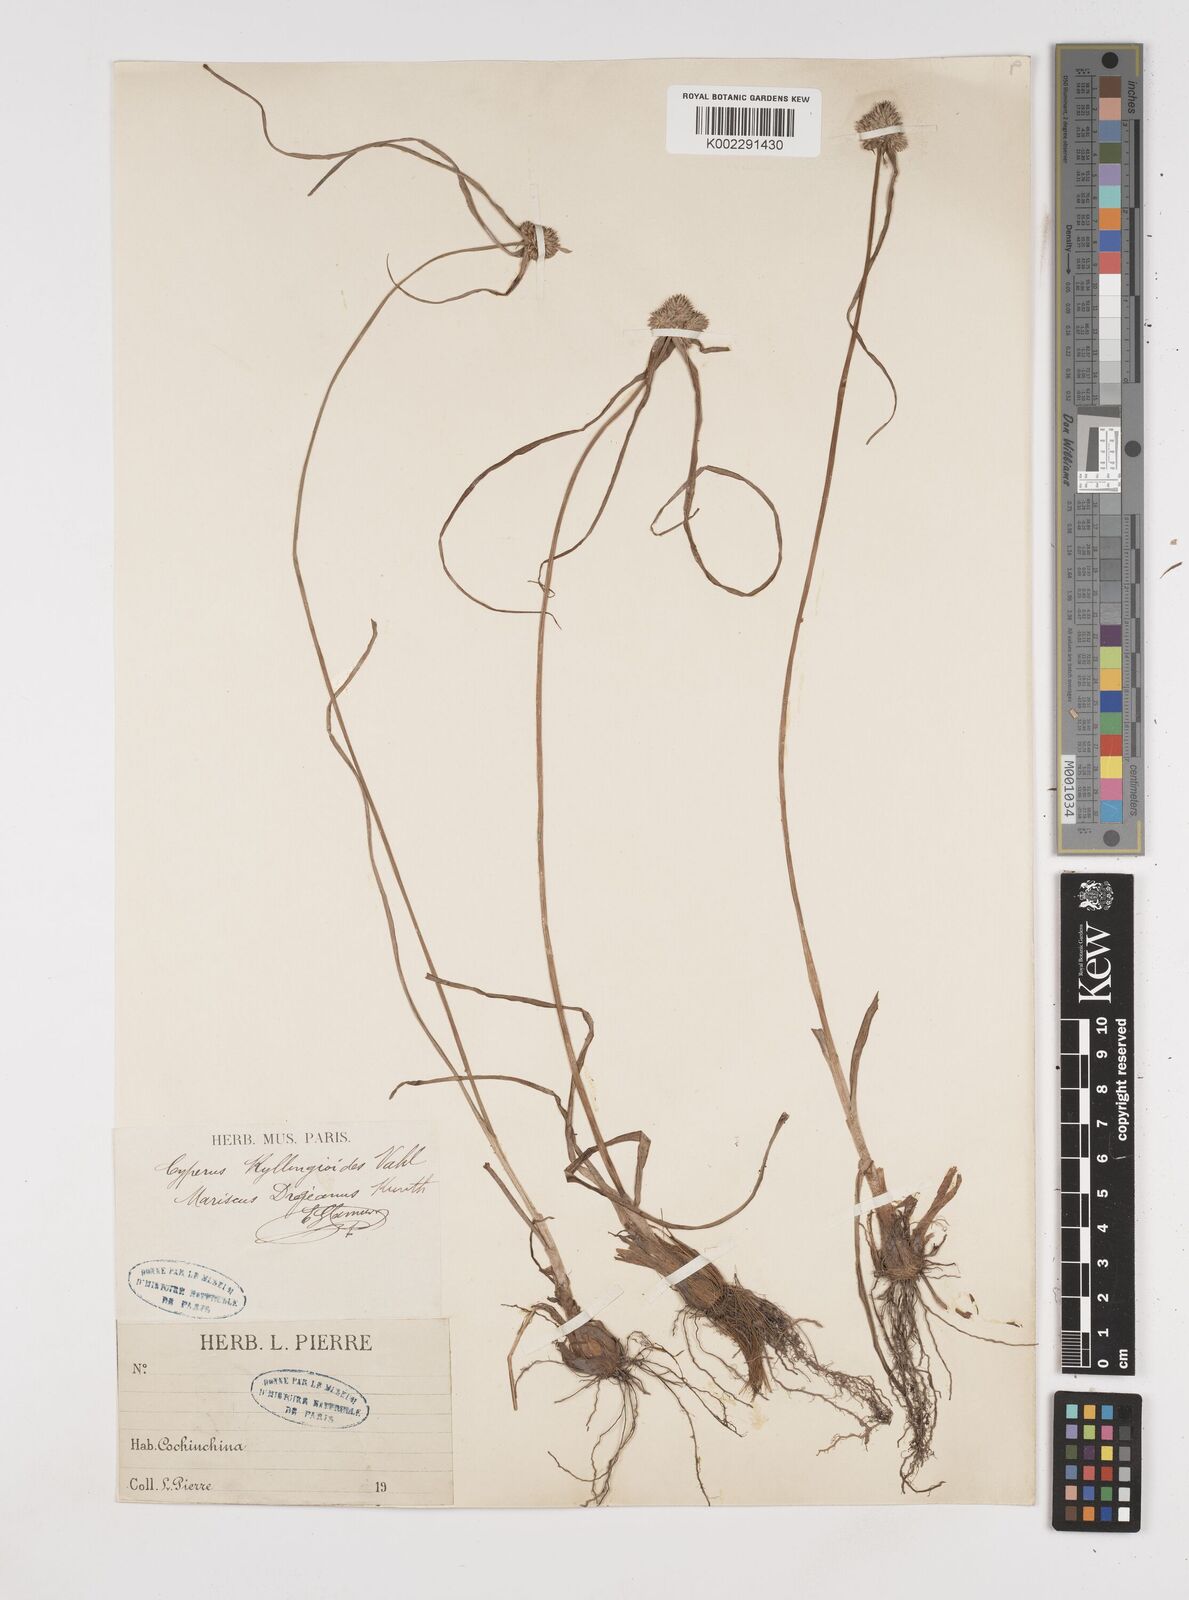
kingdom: Plantae
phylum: Tracheophyta
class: Liliopsida
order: Poales
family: Cyperaceae
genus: Cyperus
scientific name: Cyperus dubius
